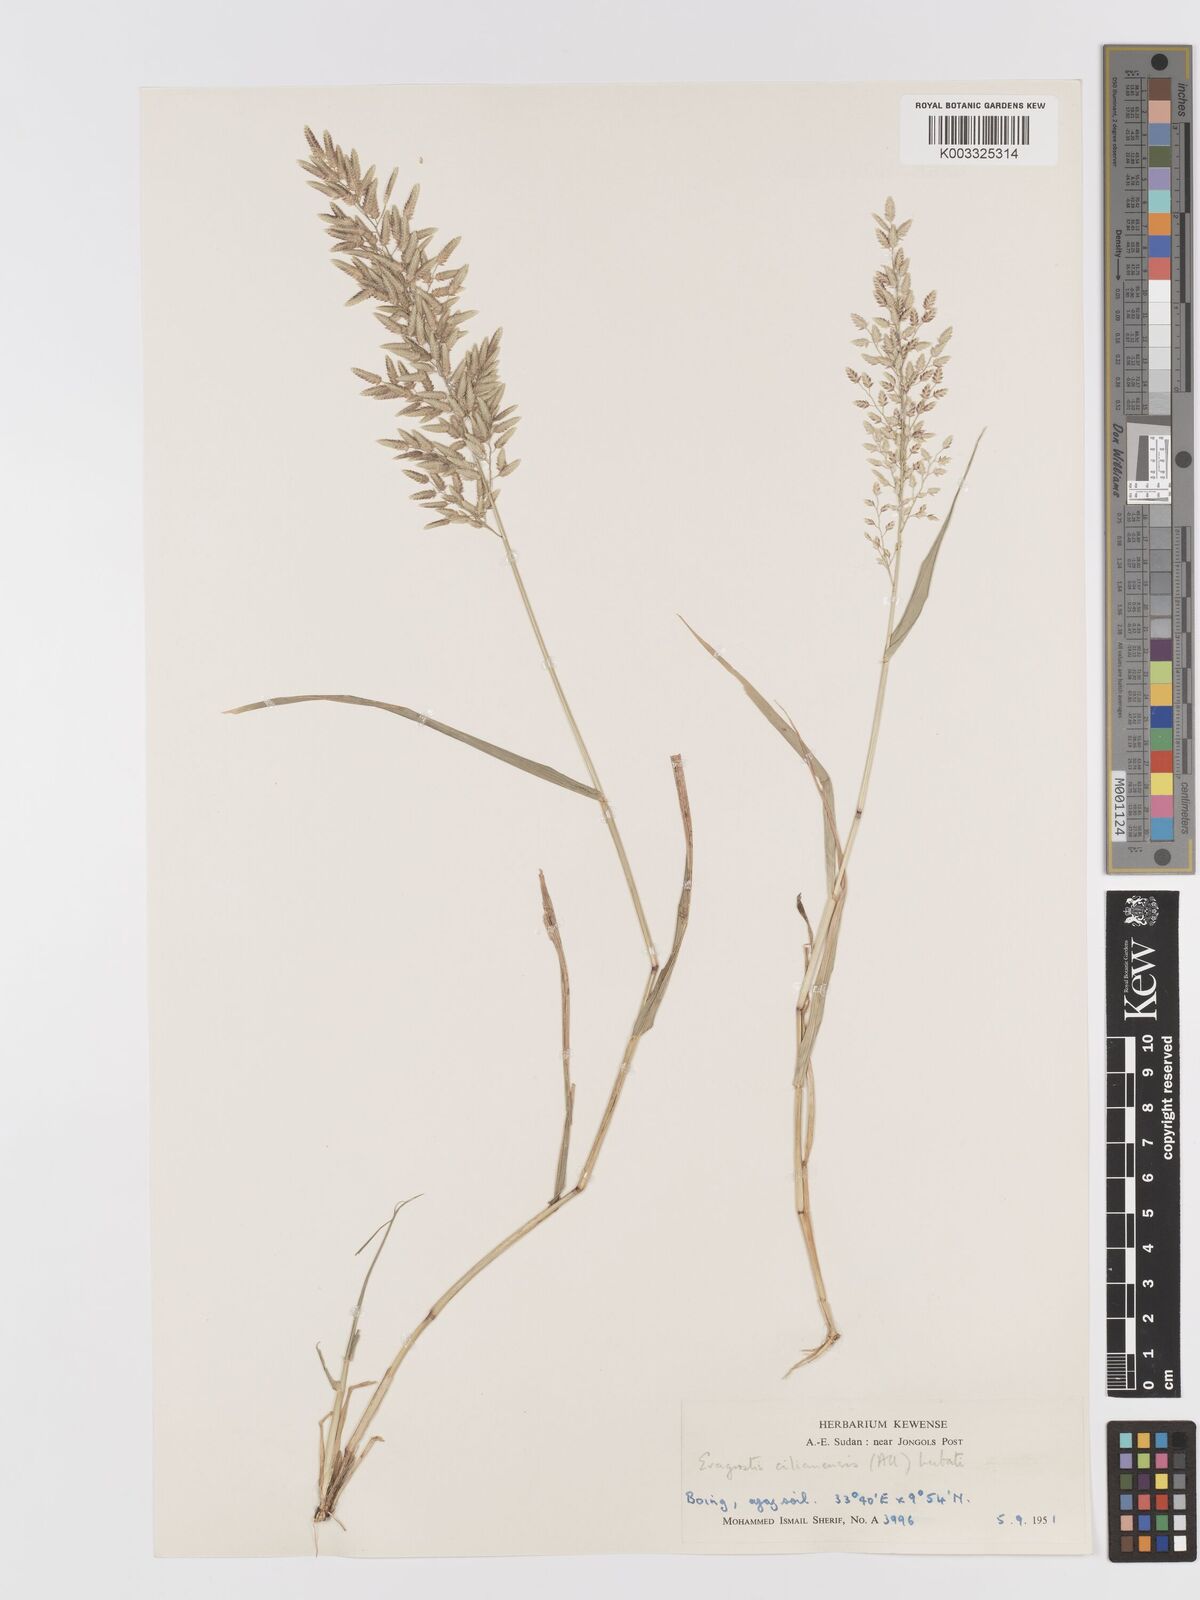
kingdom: Plantae
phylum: Tracheophyta
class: Liliopsida
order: Poales
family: Poaceae
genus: Eragrostis
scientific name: Eragrostis cilianensis
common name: Stinkgrass
